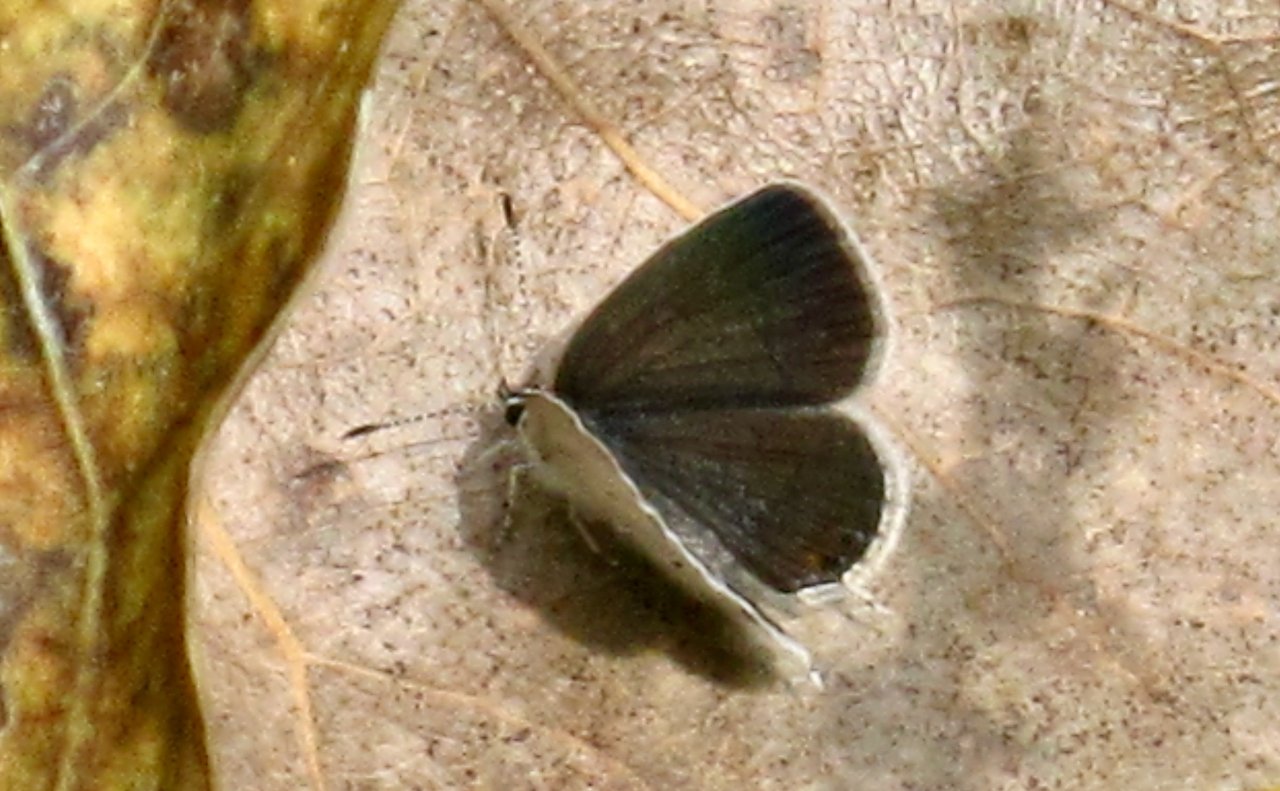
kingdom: Animalia
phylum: Arthropoda
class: Insecta
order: Lepidoptera
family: Lycaenidae
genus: Elkalyce
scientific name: Elkalyce comyntas
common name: Eastern Tailed-Blue
